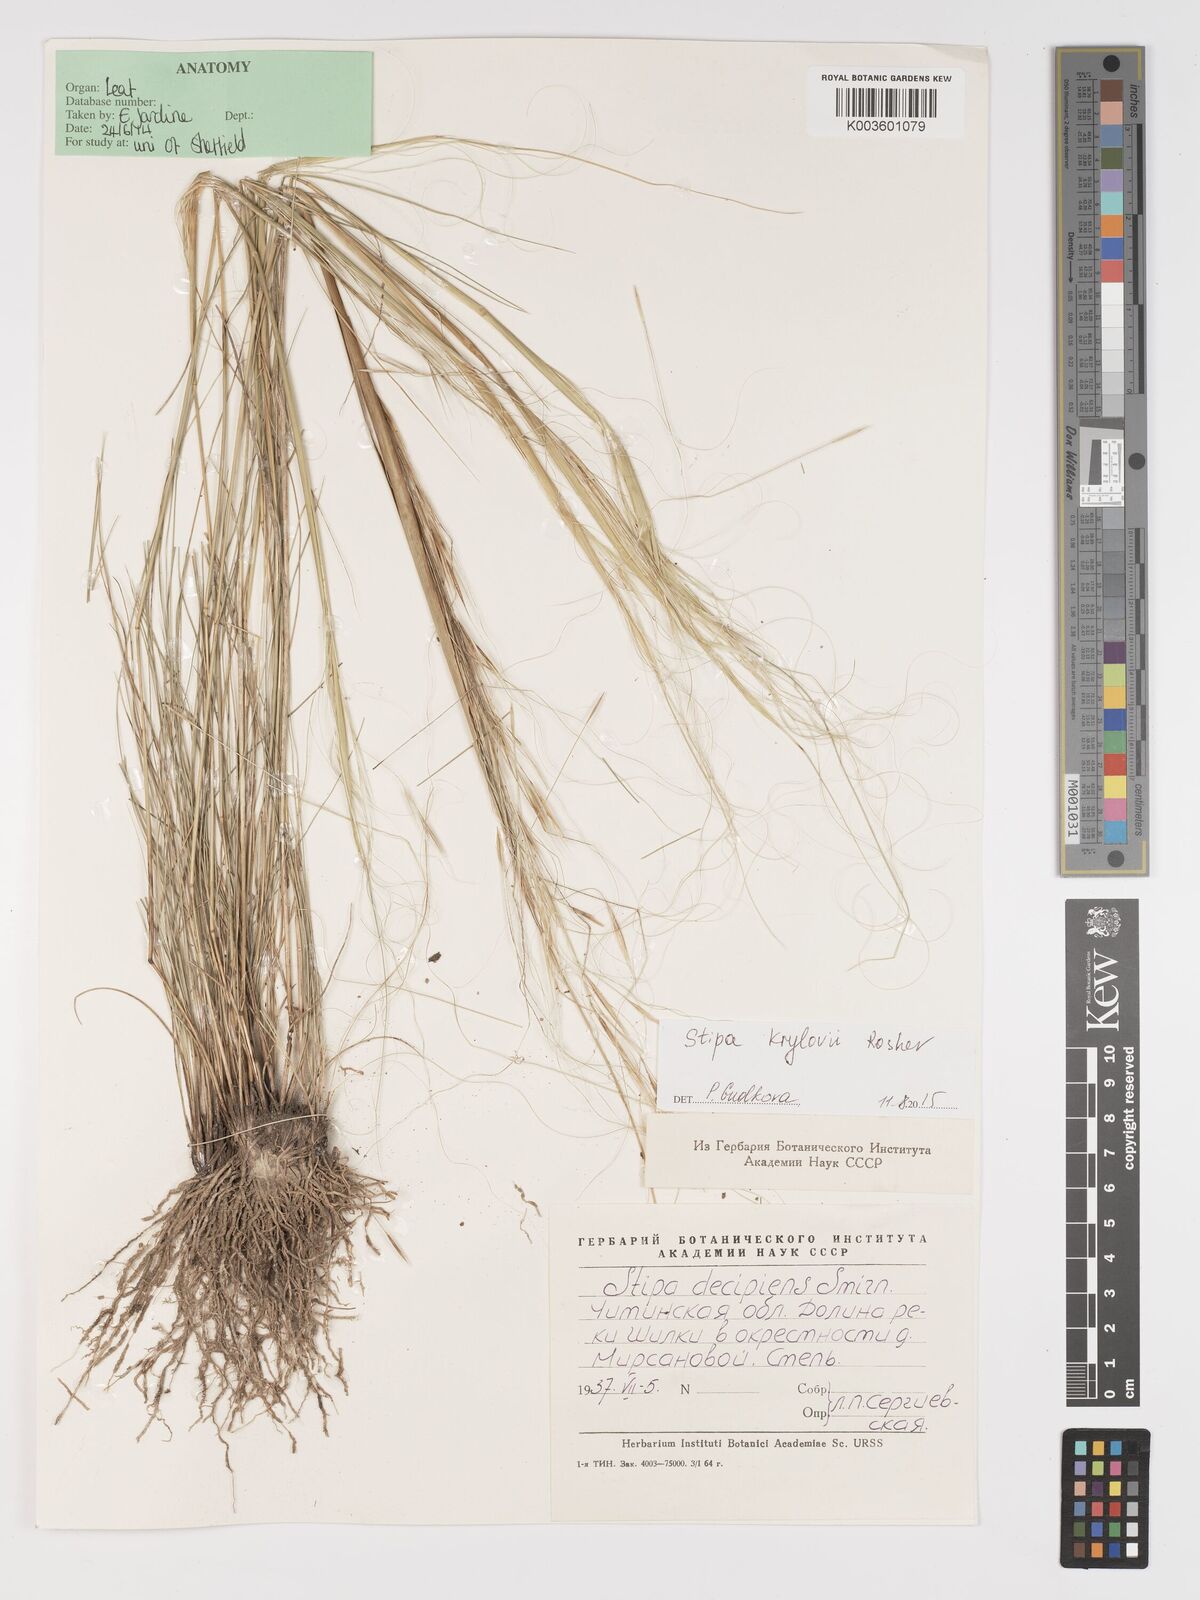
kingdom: Plantae
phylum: Tracheophyta
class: Liliopsida
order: Poales
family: Poaceae
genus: Stipa
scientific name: Stipa krylovii
